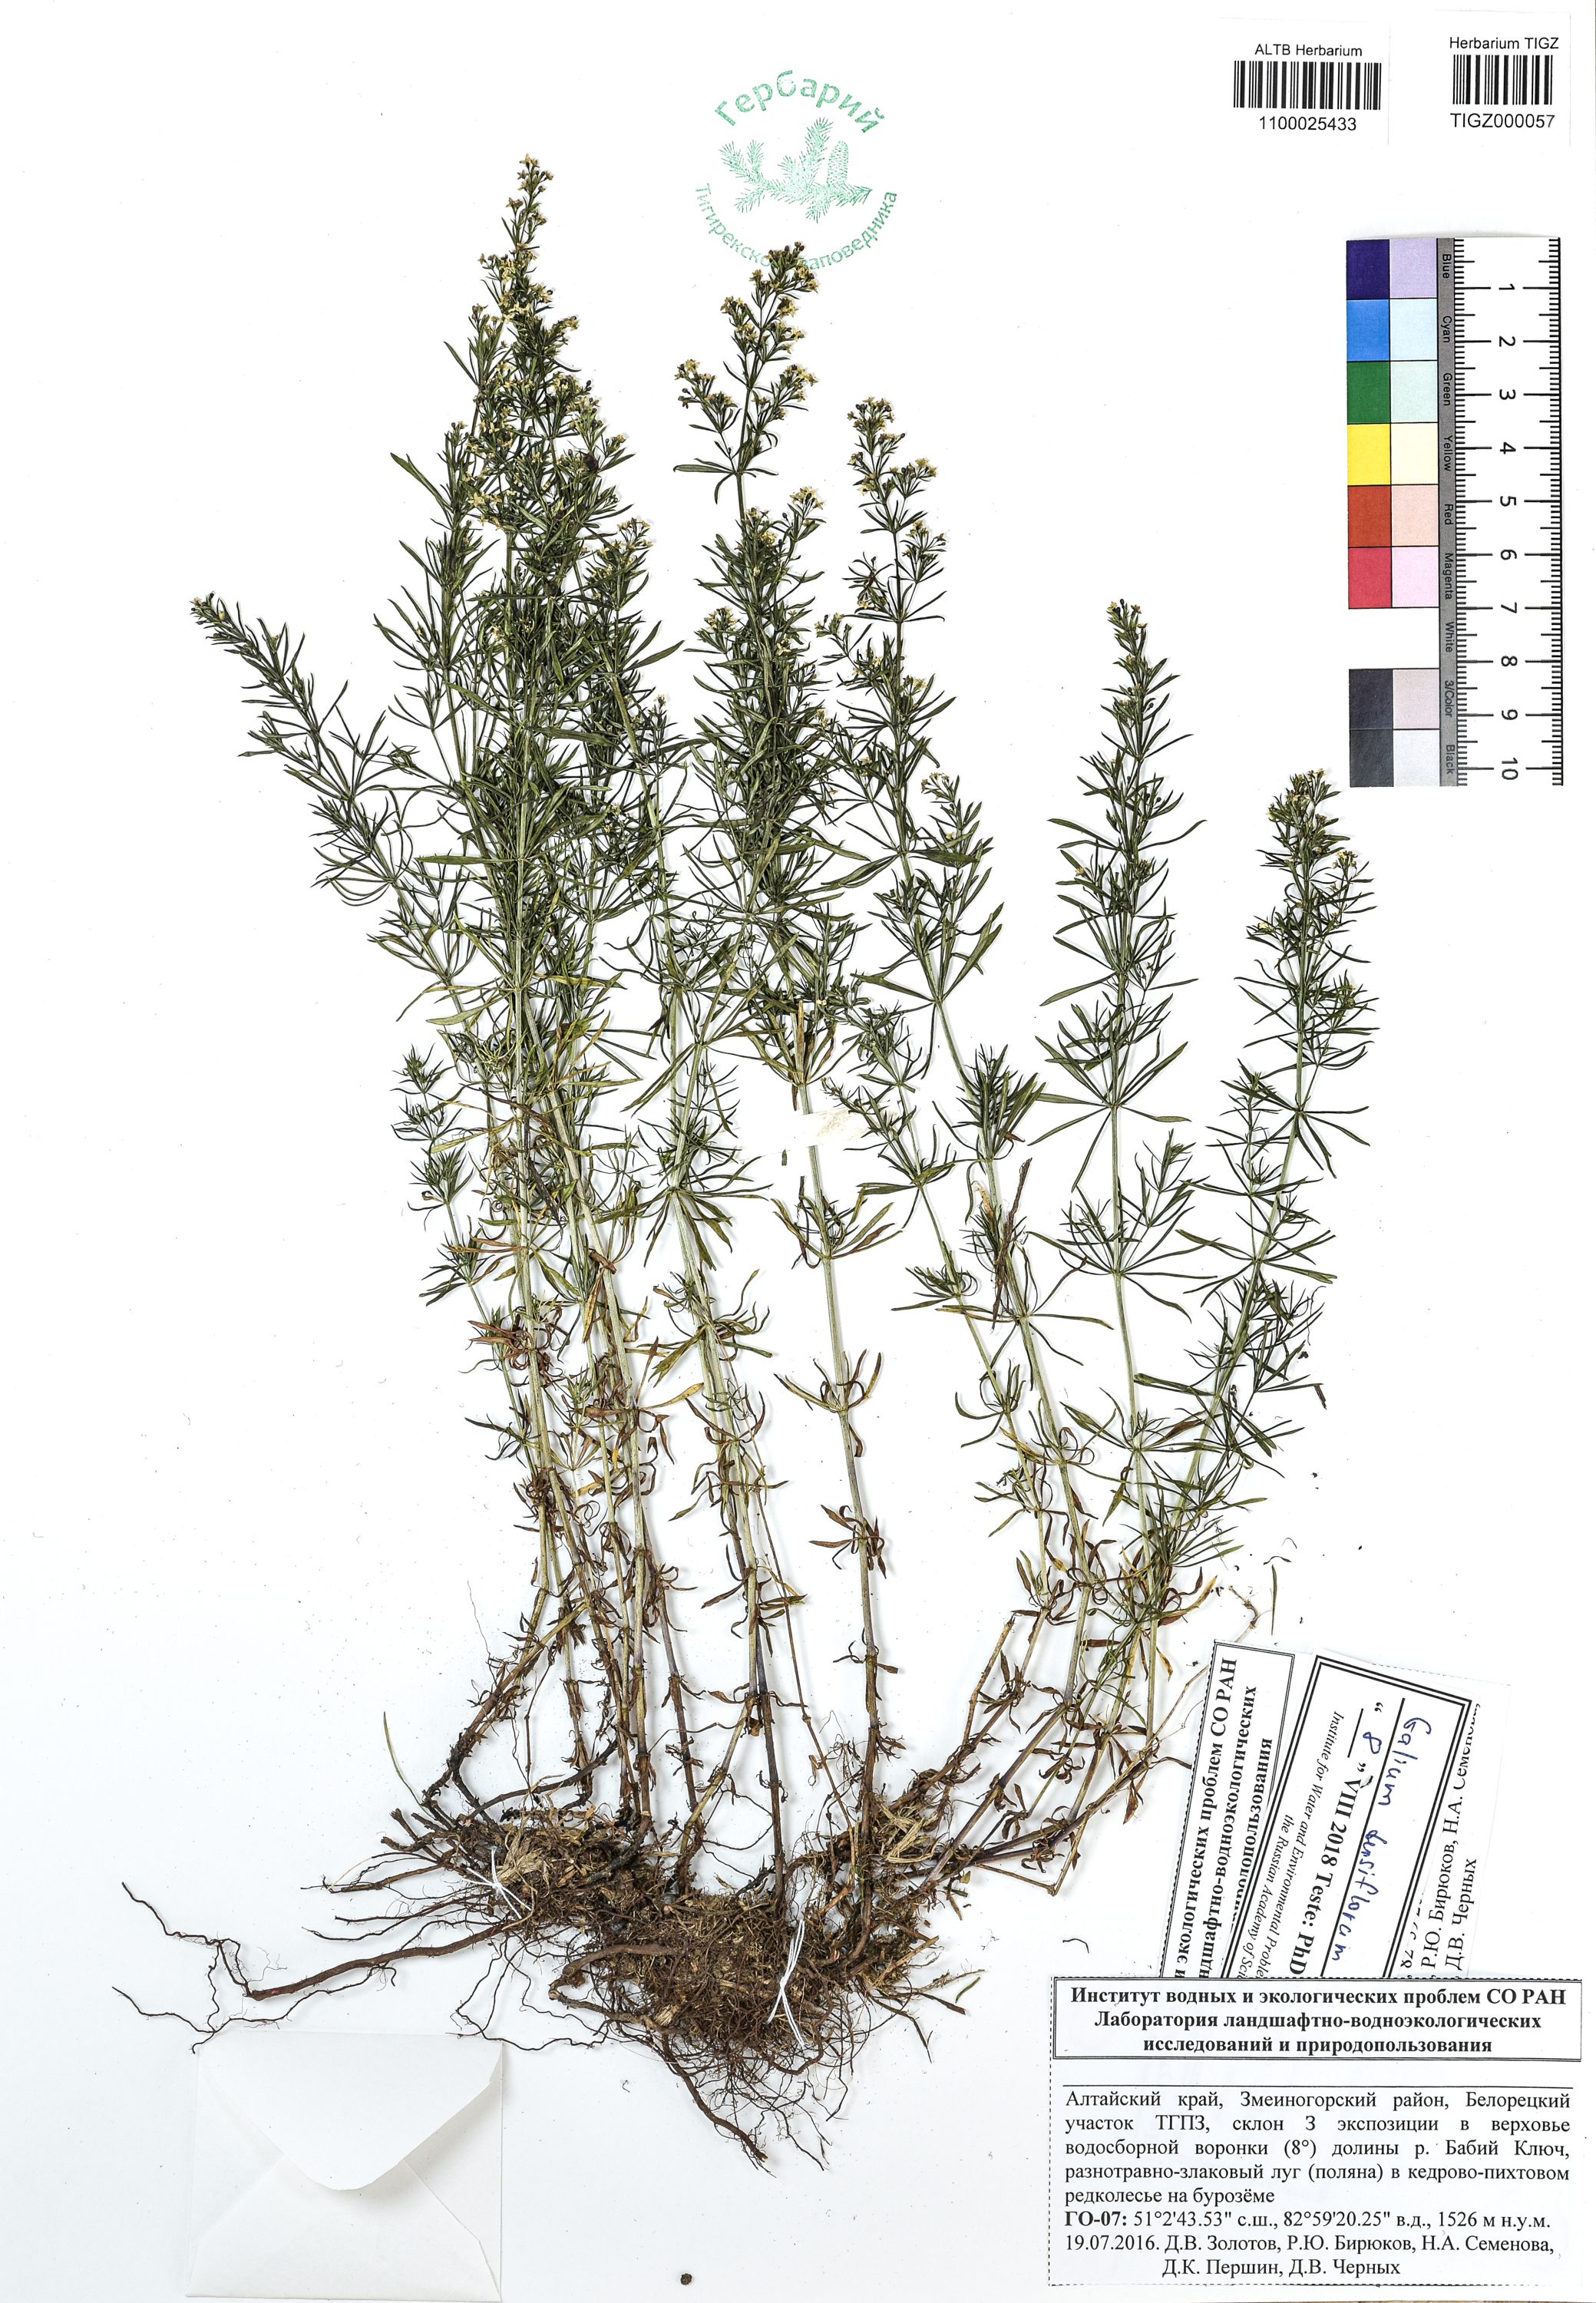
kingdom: Plantae
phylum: Tracheophyta
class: Magnoliopsida
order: Gentianales
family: Rubiaceae
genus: Galium
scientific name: Galium densiflorum
